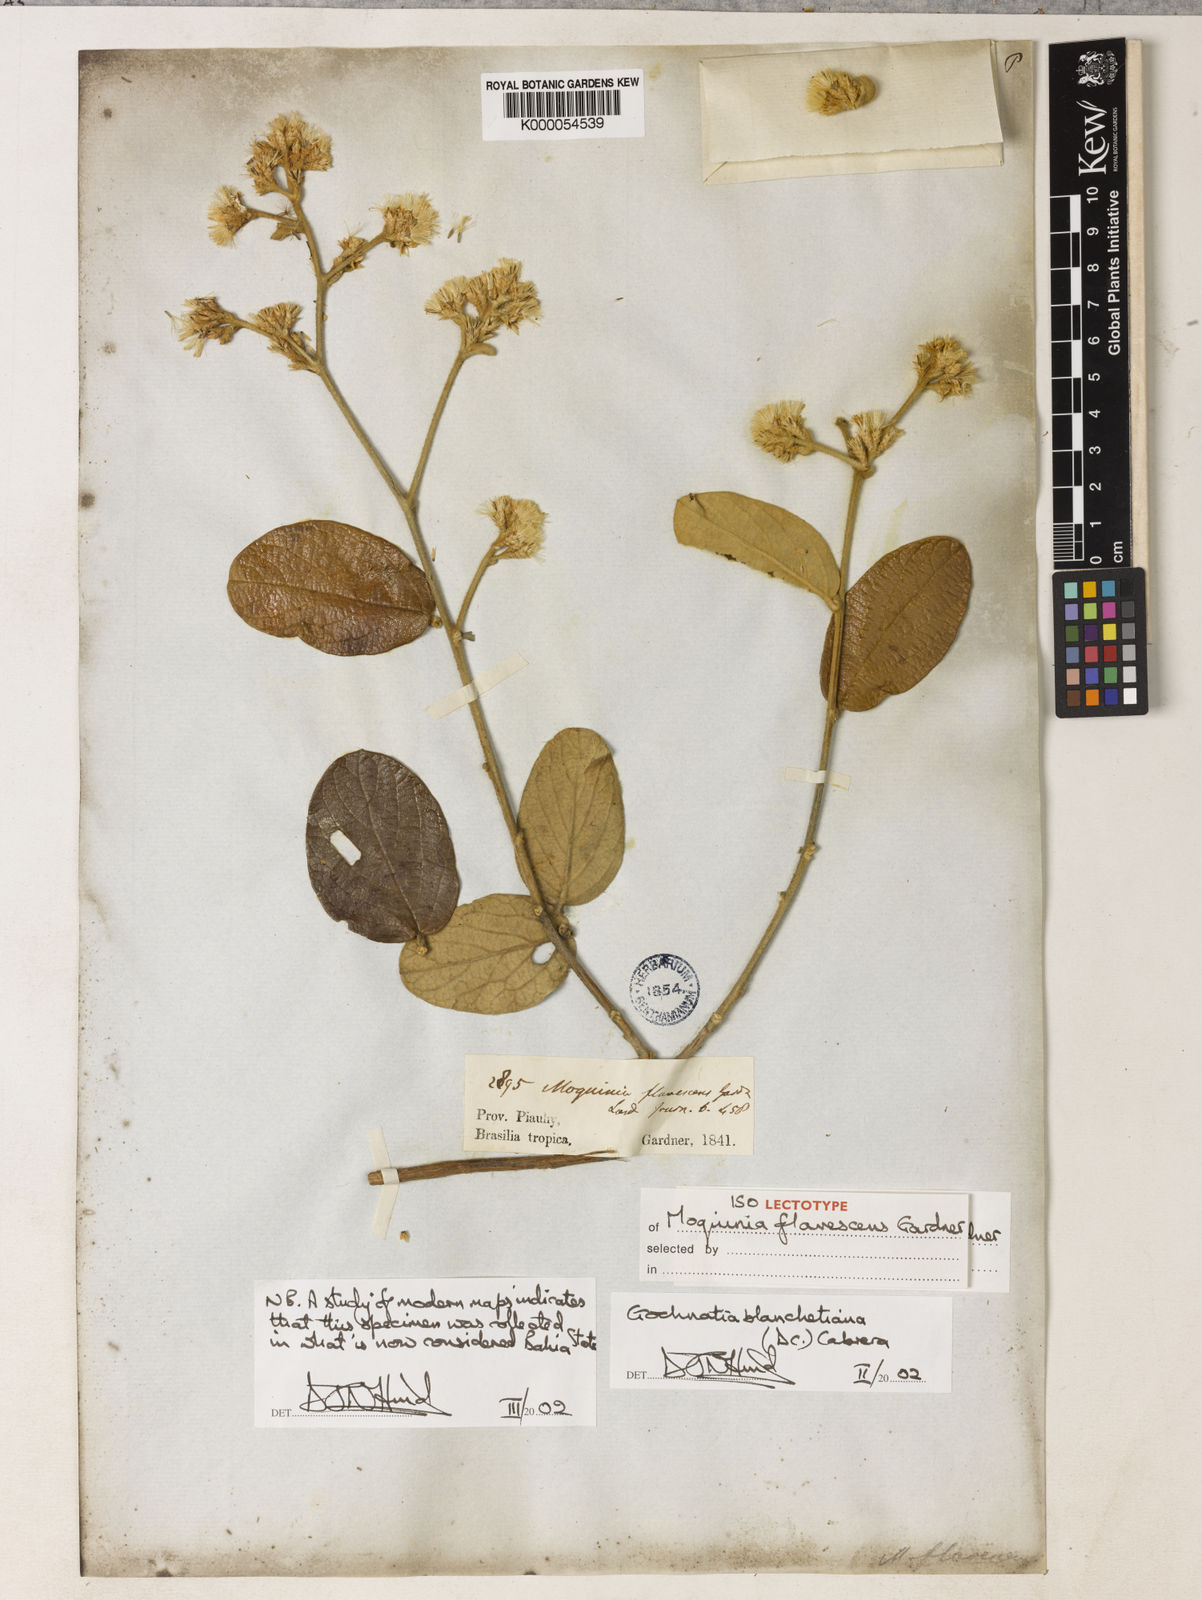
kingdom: Plantae
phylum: Tracheophyta
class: Magnoliopsida
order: Asterales
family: Asteraceae
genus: Moquiniastrum
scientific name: Moquiniastrum blanchetianum
